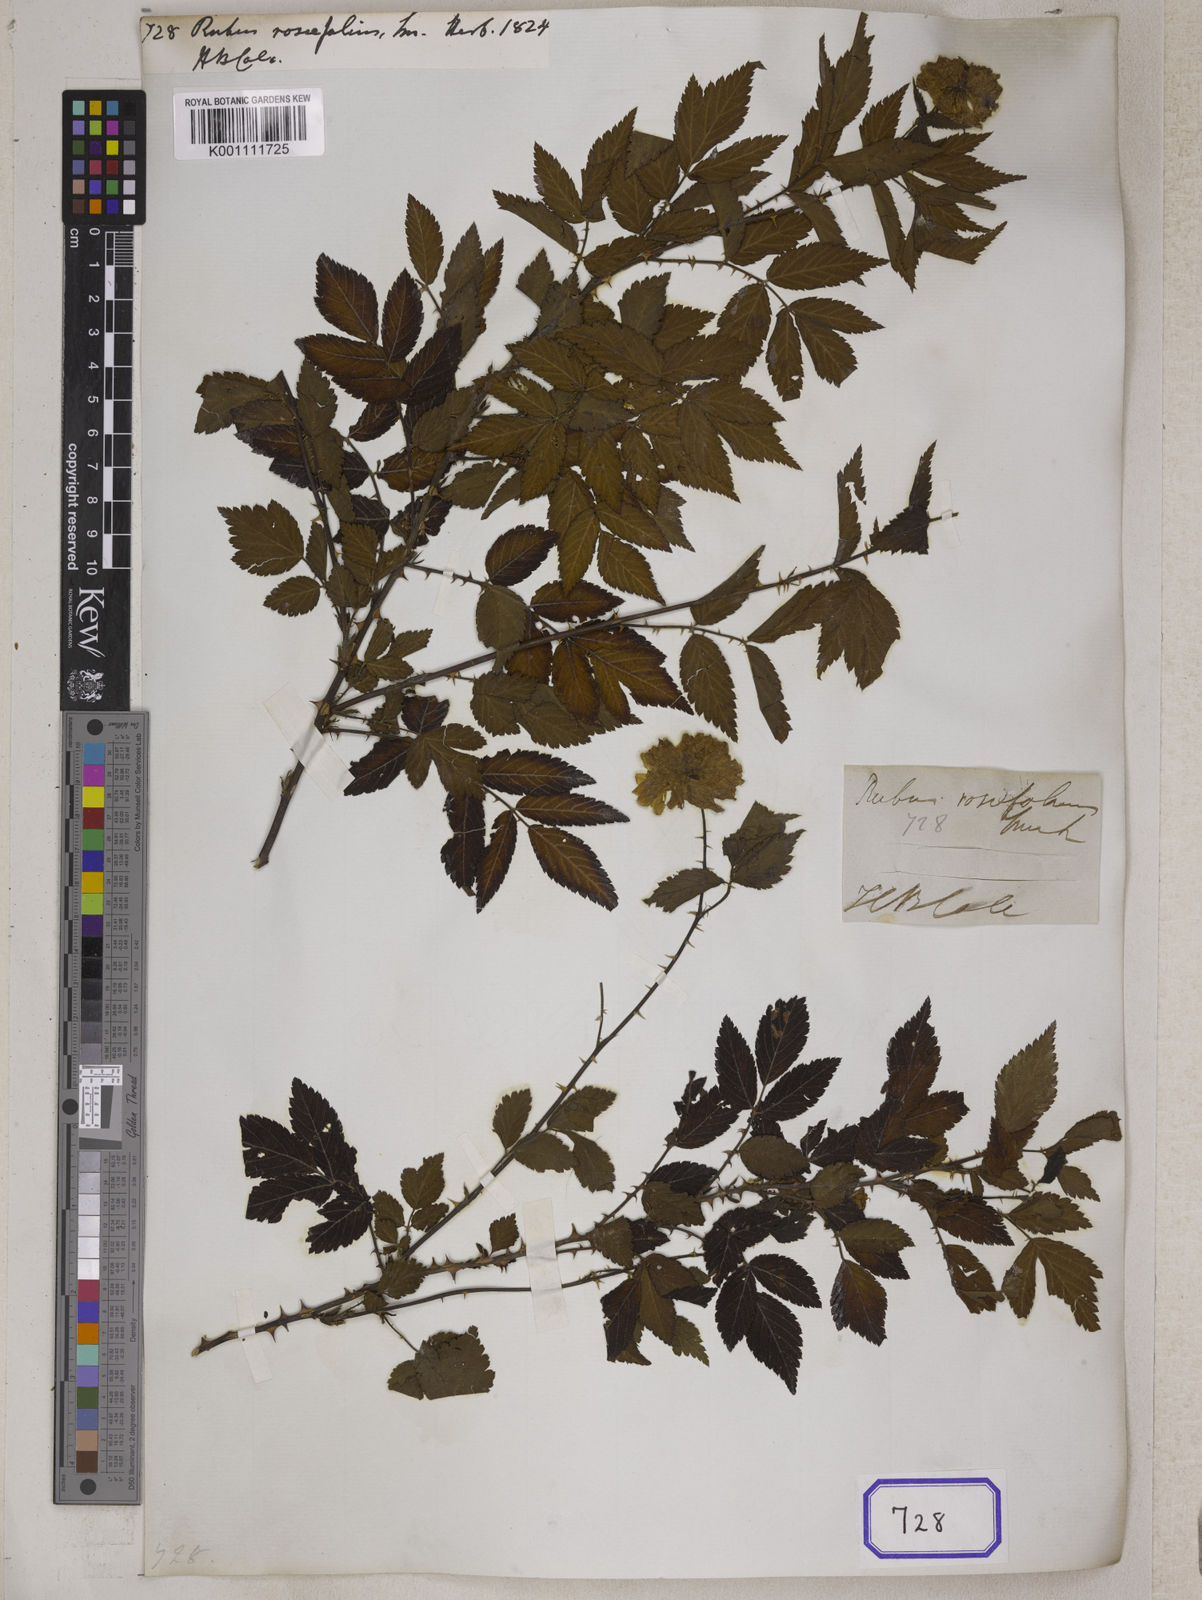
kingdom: Plantae
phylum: Tracheophyta
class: Magnoliopsida
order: Rosales
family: Rosaceae
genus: Rubus
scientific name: Rubus rosifolius
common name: Roseleaf raspberry
